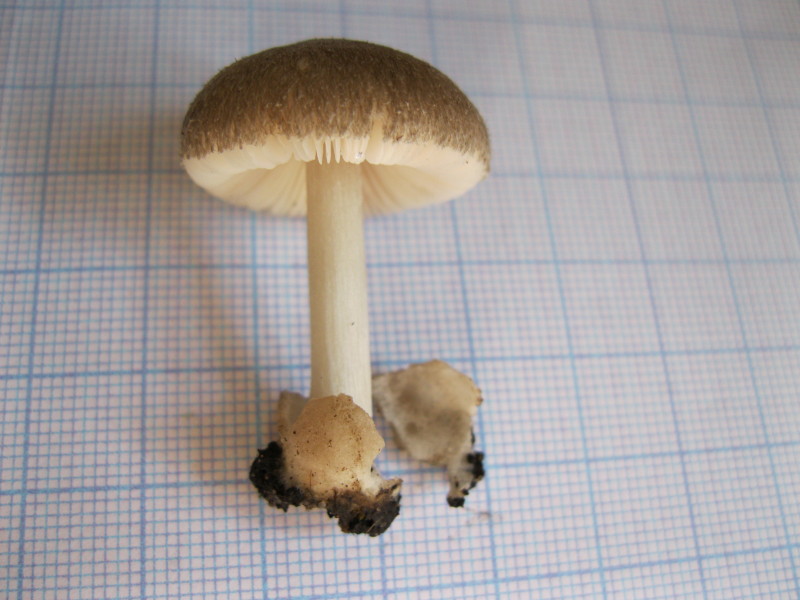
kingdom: Fungi
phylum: Basidiomycota
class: Agaricomycetes
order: Agaricales
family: Pluteaceae
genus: Volvariella
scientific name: Volvariella murinella
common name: musegrå posesvamp
